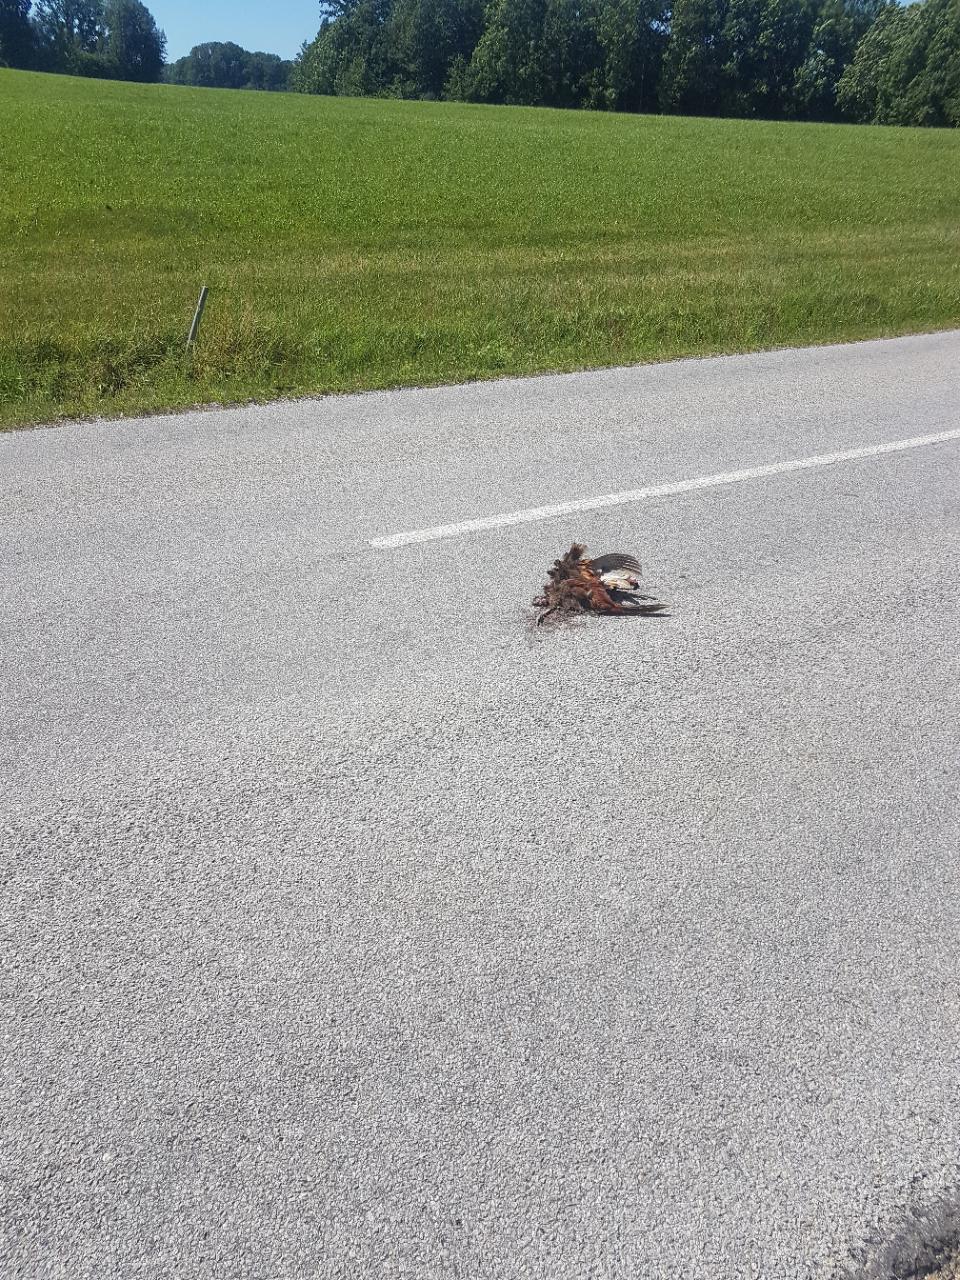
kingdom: Animalia
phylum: Chordata
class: Aves
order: Galliformes
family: Phasianidae
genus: Phasianus
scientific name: Phasianus colchicus
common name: Common pheasant
